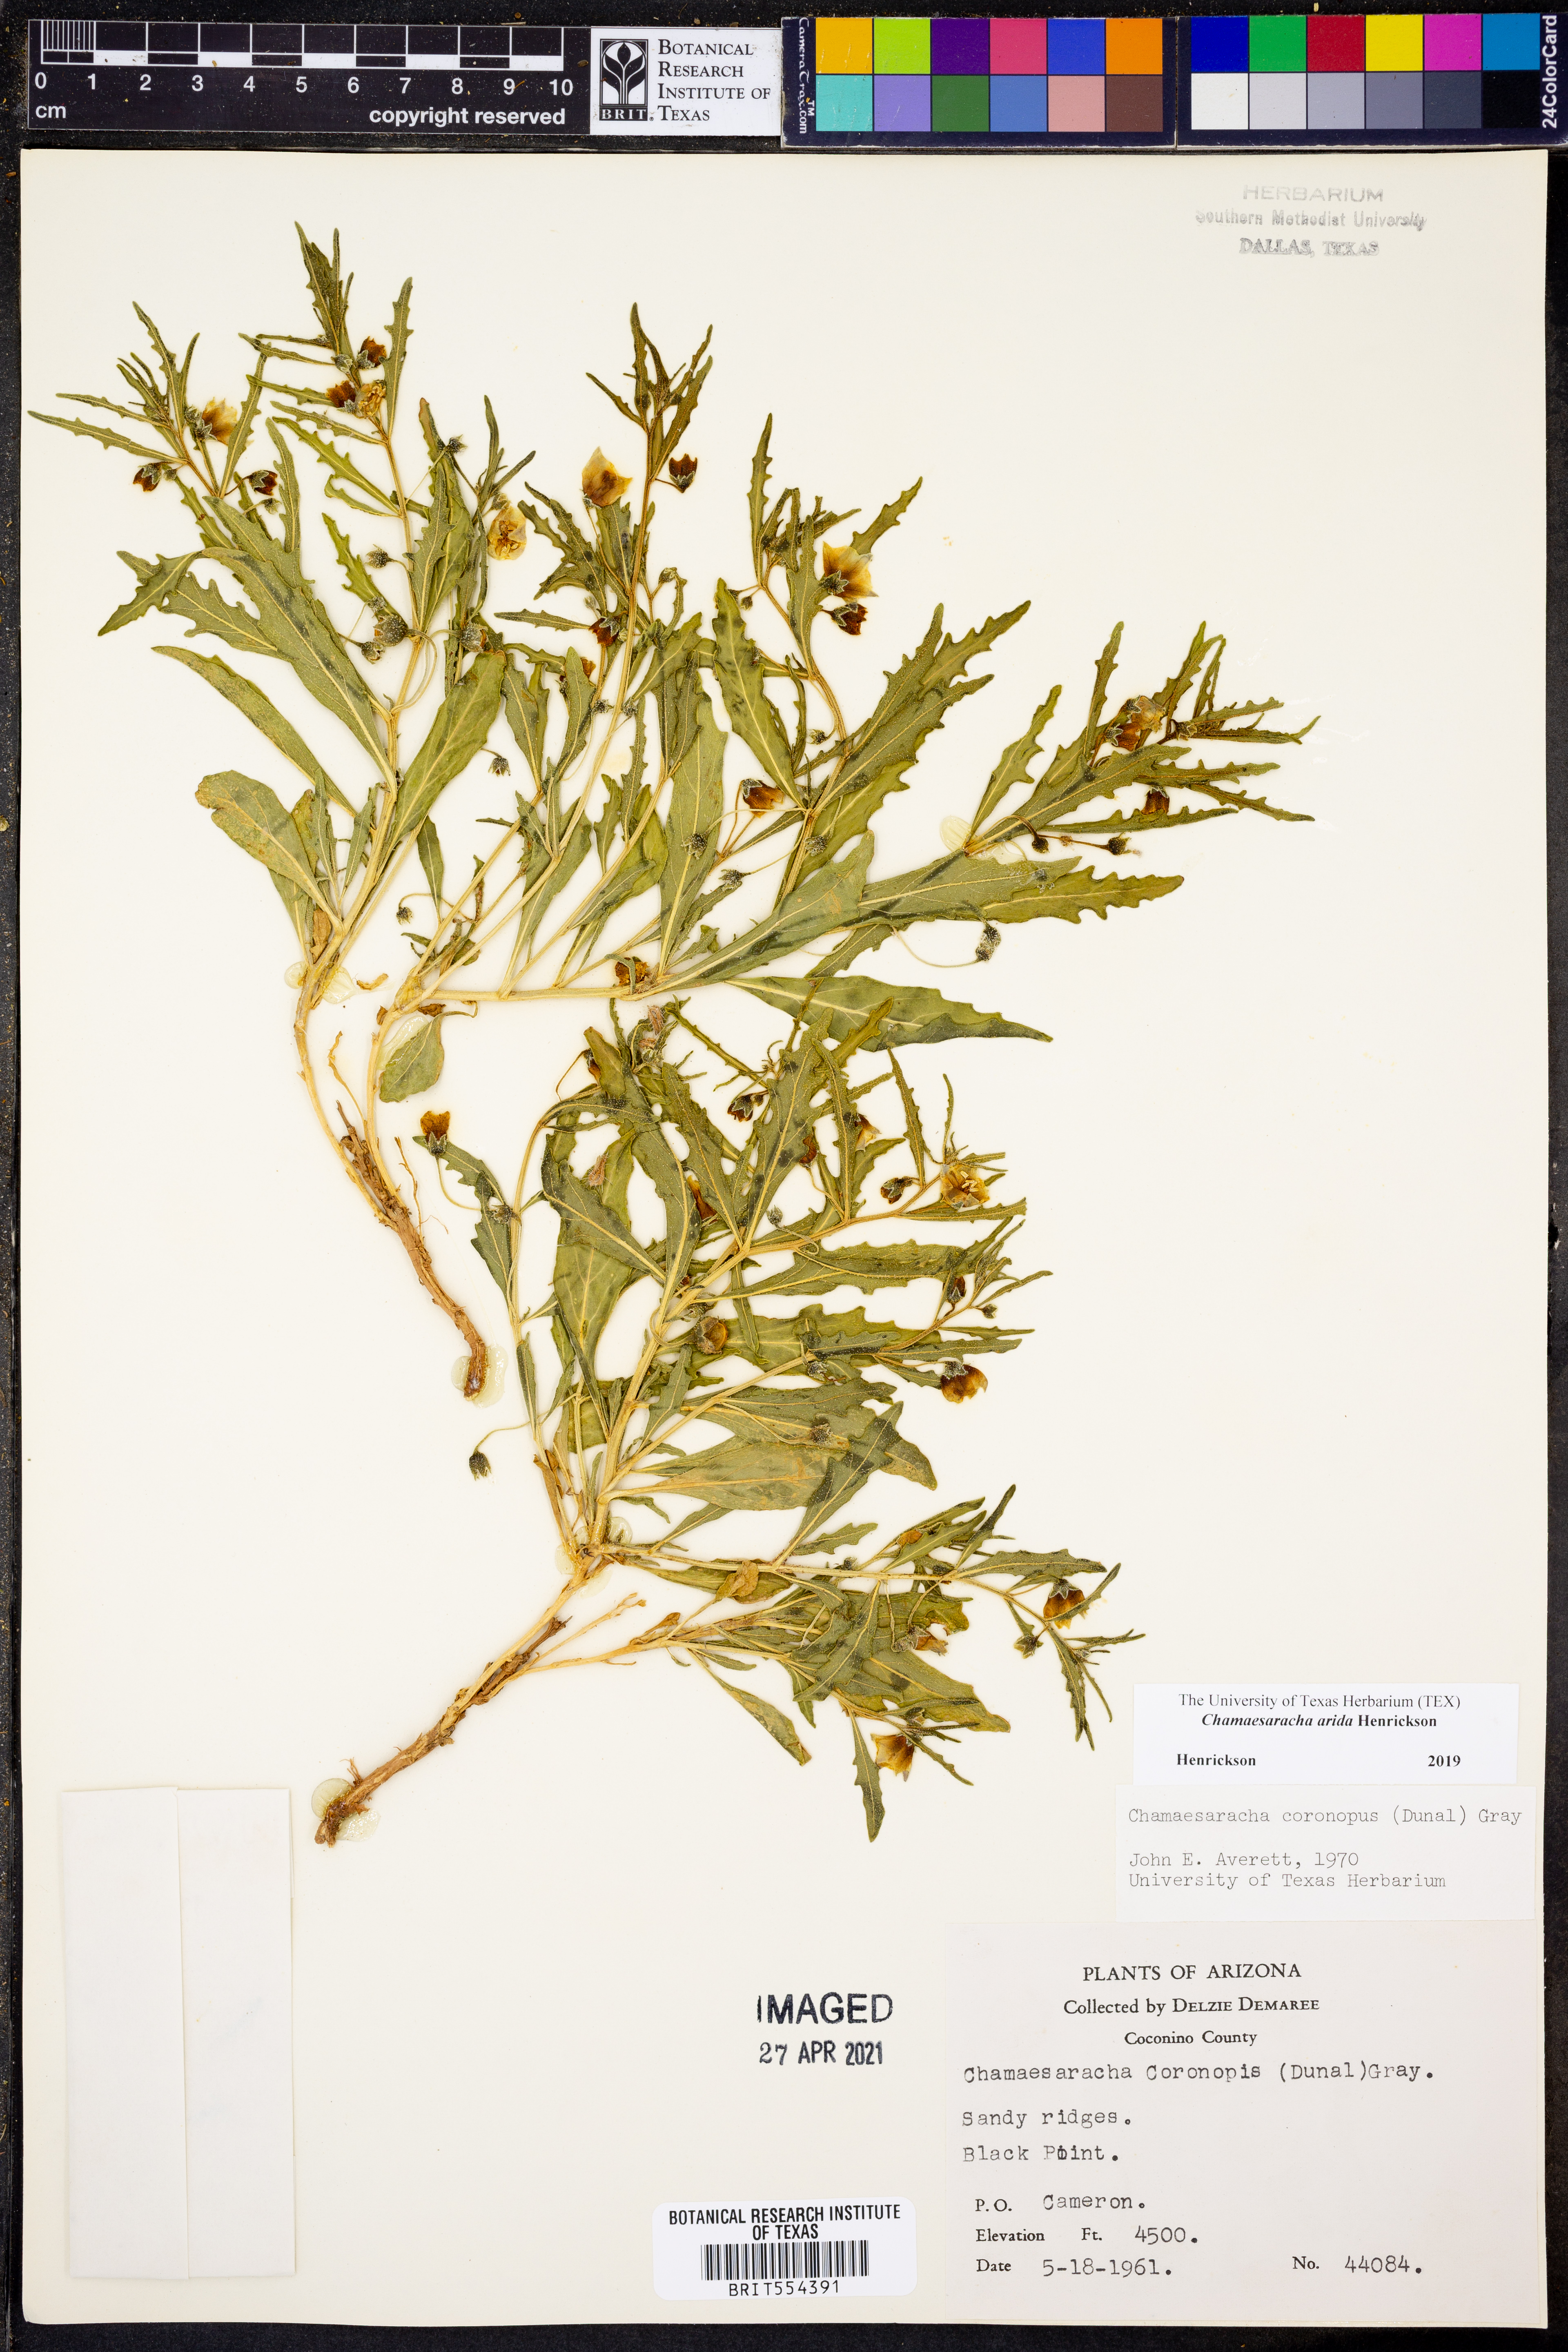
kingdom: Plantae
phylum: Tracheophyta
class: Magnoliopsida
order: Solanales
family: Solanaceae
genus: Chamaesaracha
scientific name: Chamaesaracha arida
